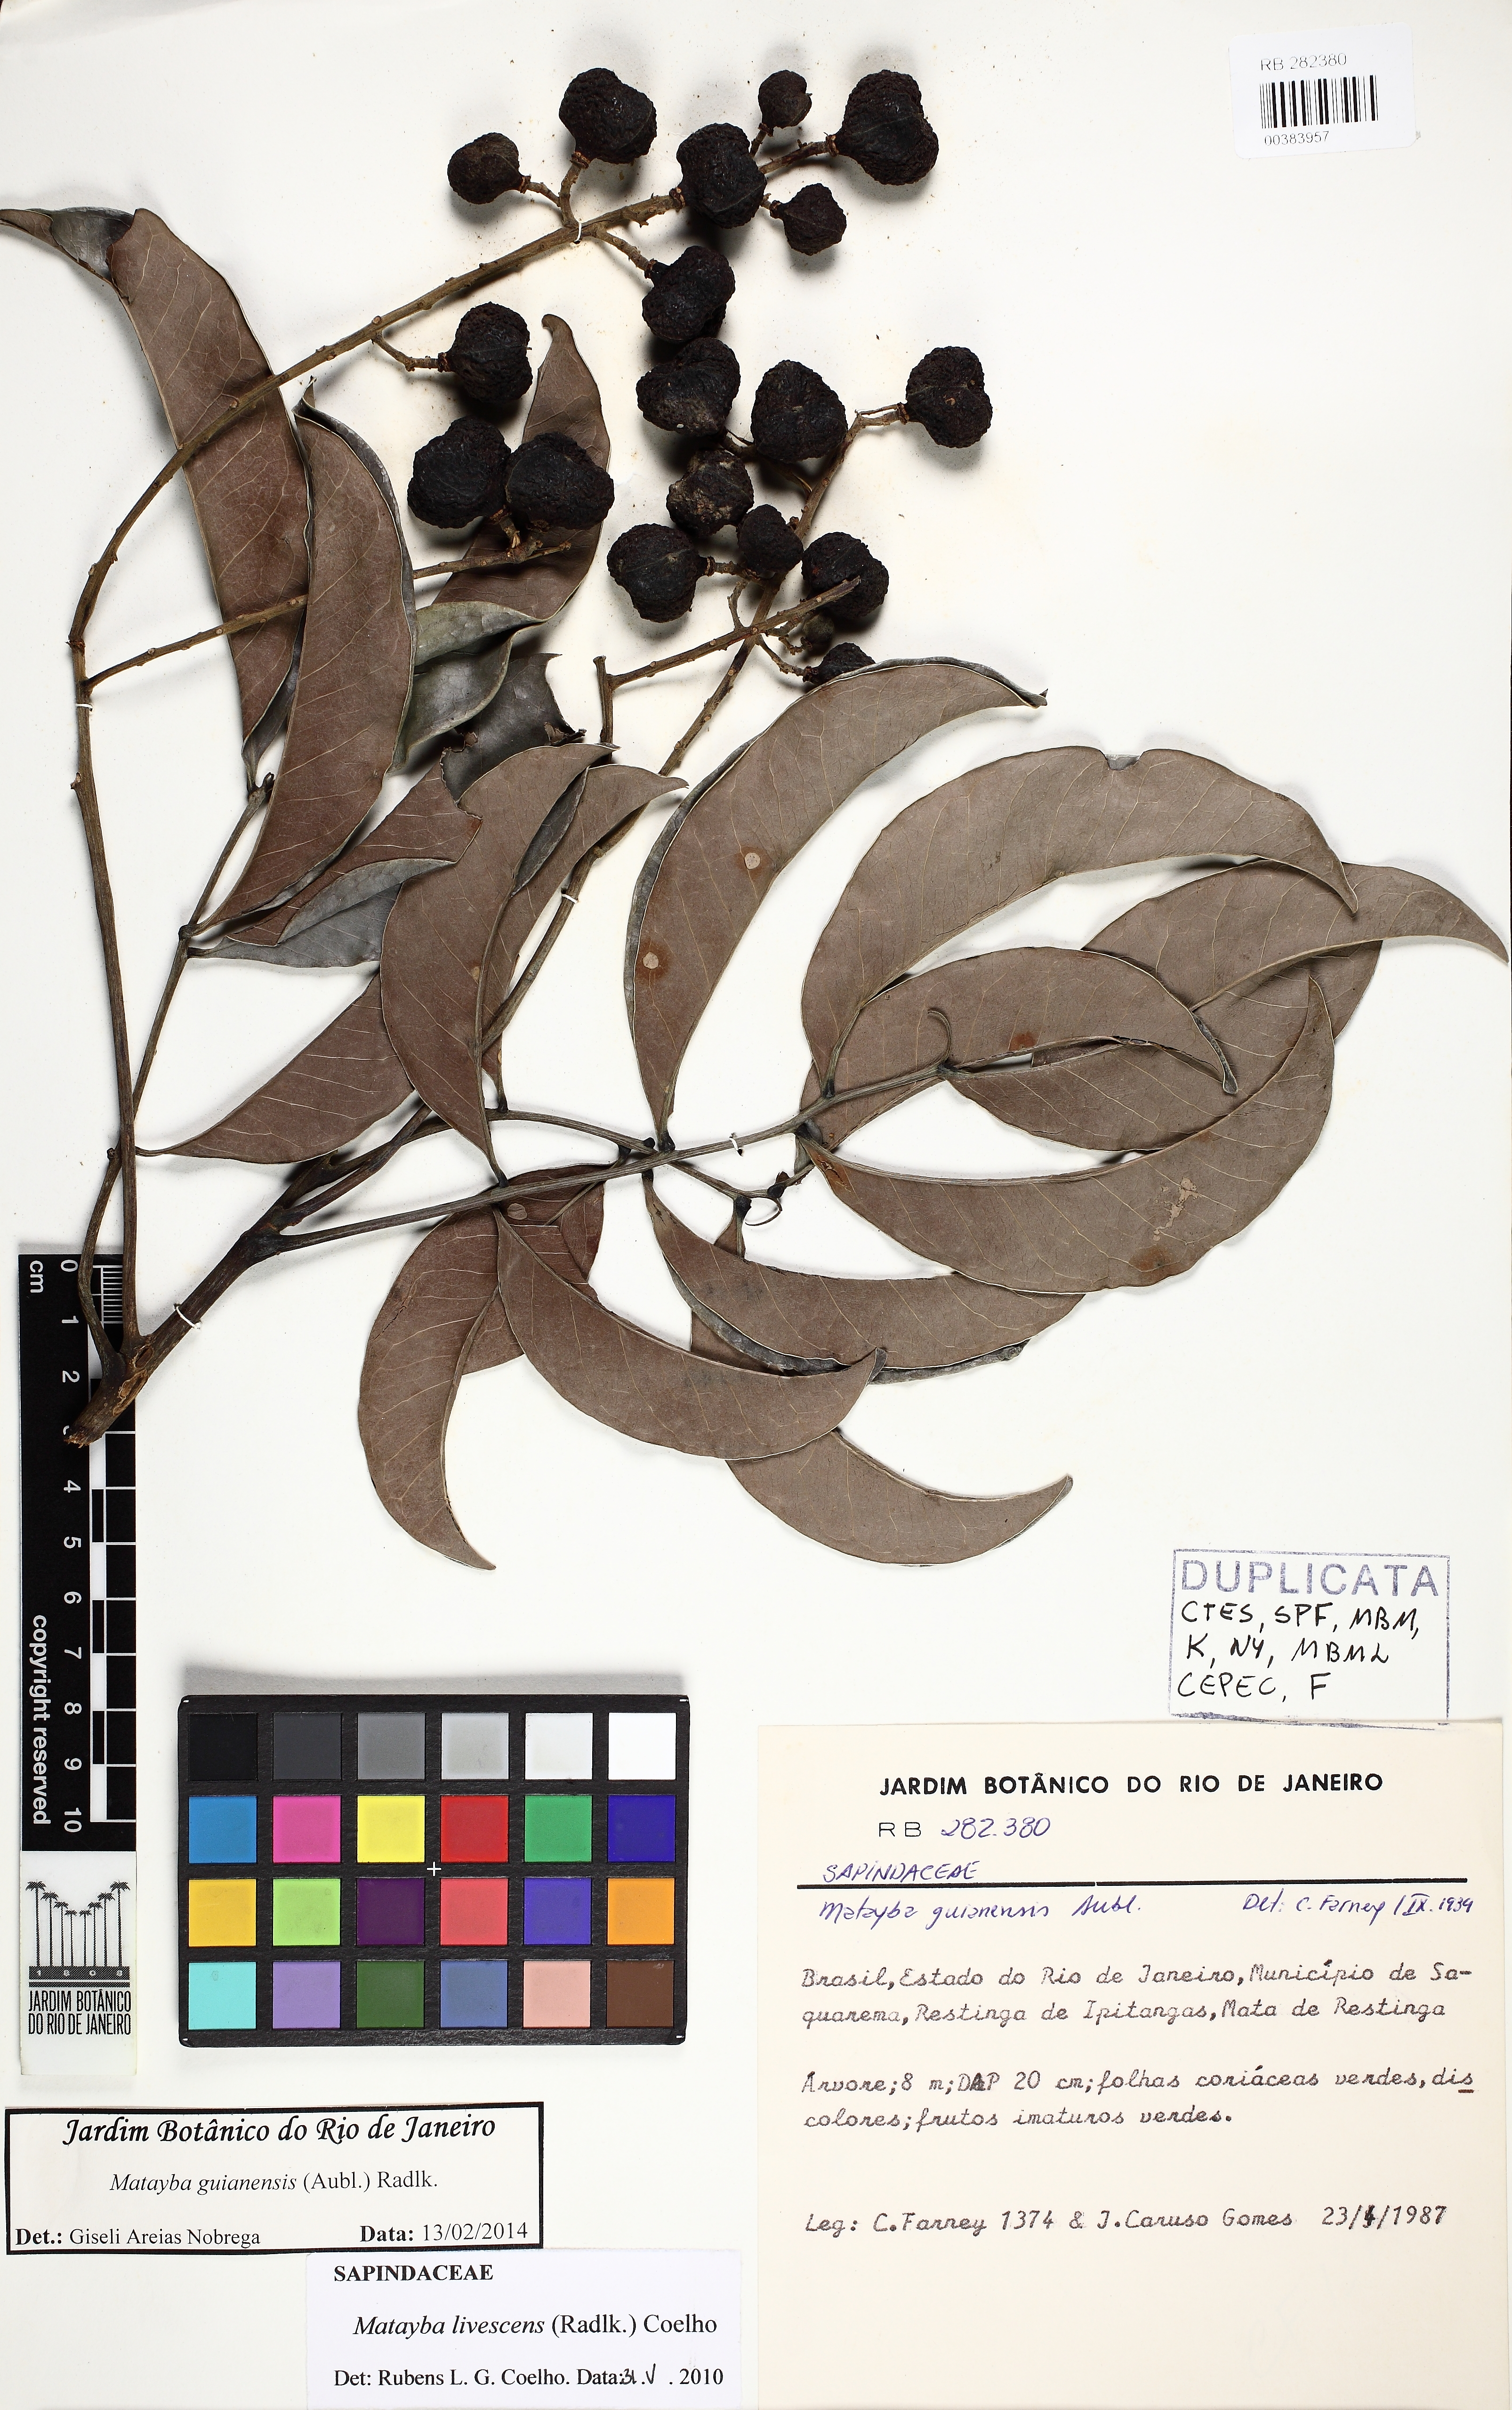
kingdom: Plantae
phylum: Tracheophyta
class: Magnoliopsida
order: Sapindales
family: Sapindaceae
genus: Matayba
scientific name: Matayba livescens
